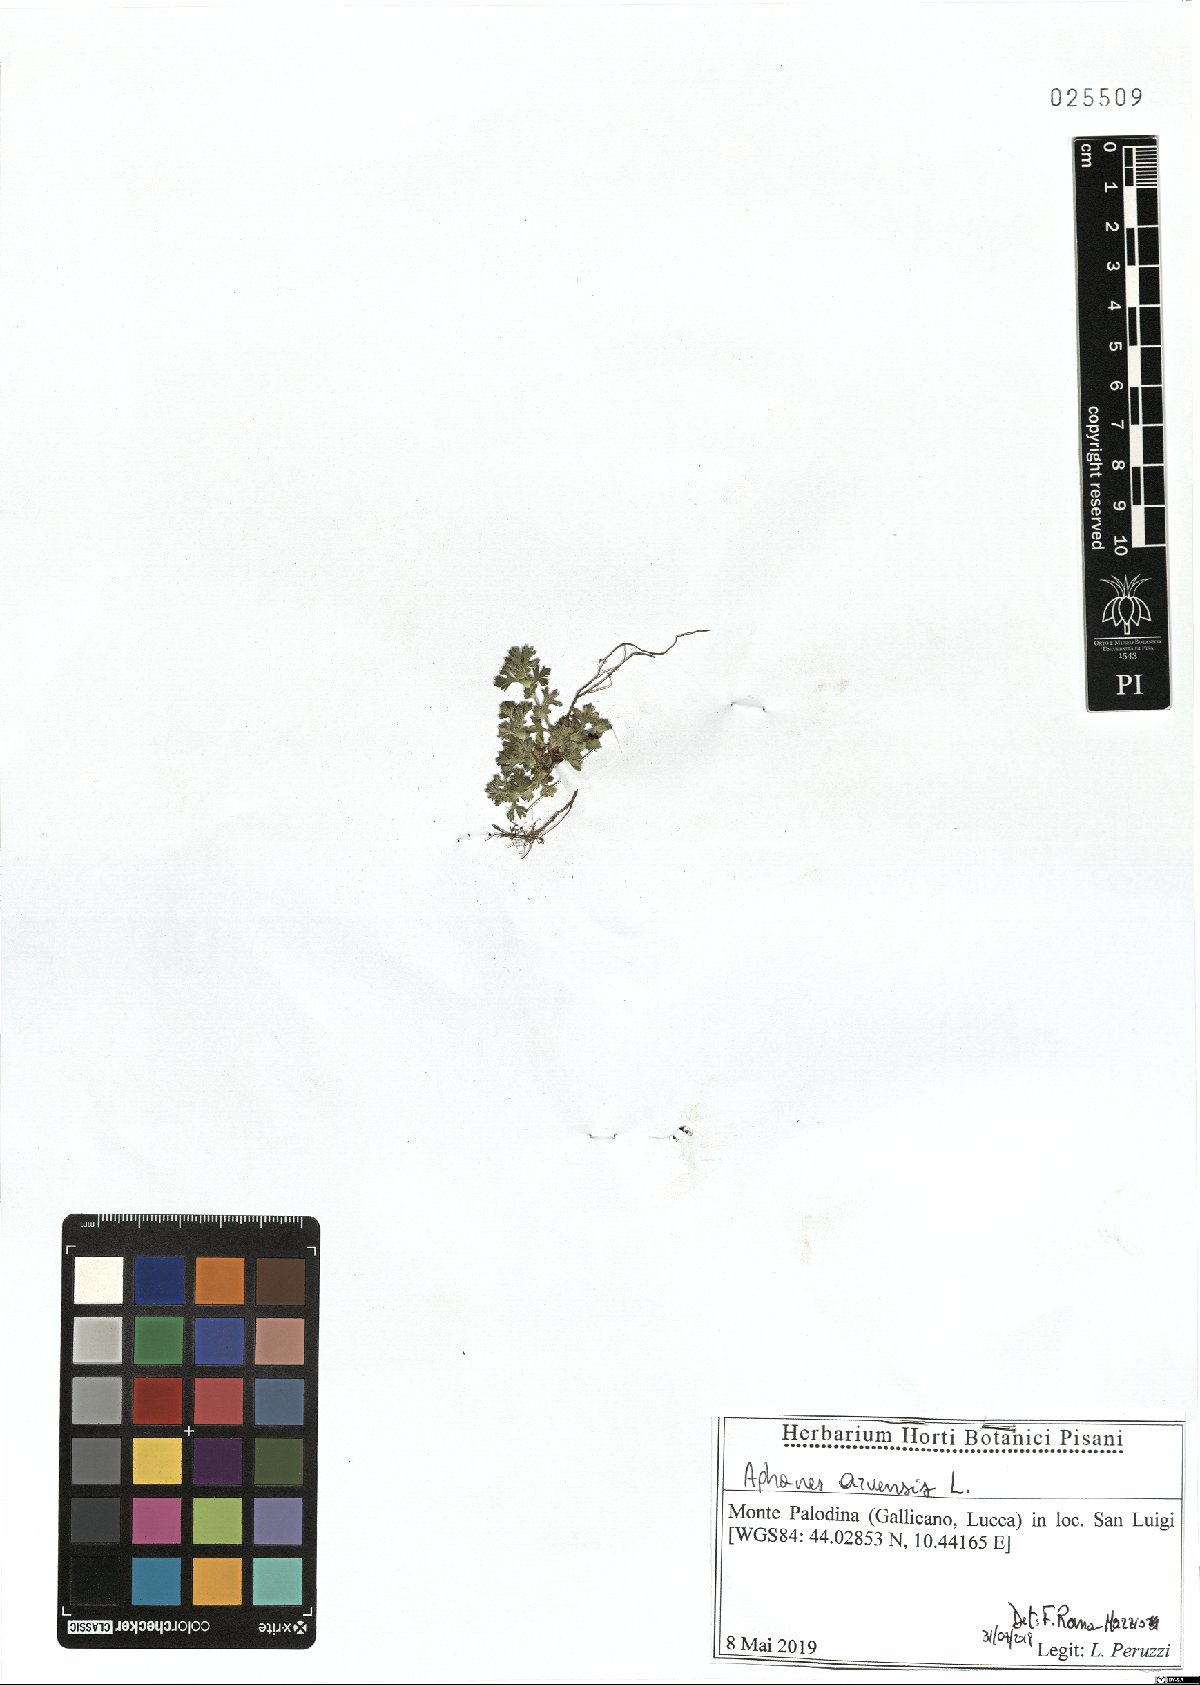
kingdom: Plantae
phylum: Tracheophyta
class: Magnoliopsida
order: Rosales
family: Rosaceae
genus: Aphanes
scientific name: Aphanes arvensis
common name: Parsley-piert
